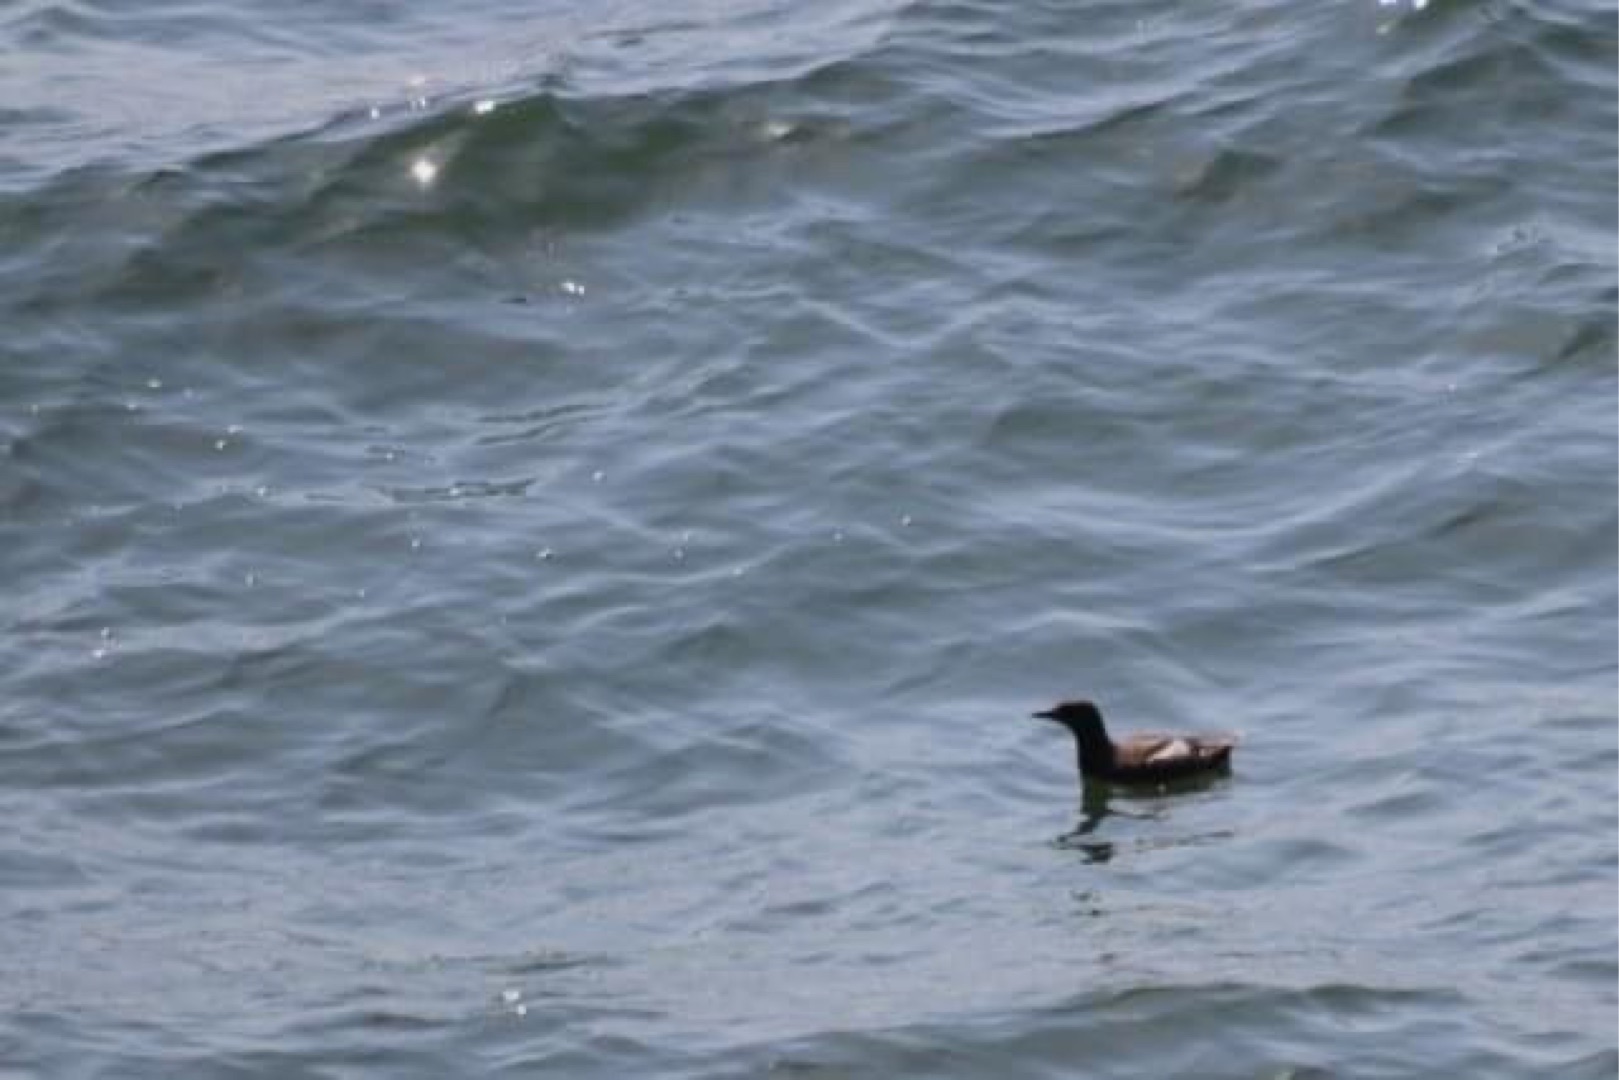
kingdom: Animalia
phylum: Chordata
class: Aves
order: Charadriiformes
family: Alcidae
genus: Cepphus
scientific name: Cepphus grylle
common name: Tejst
